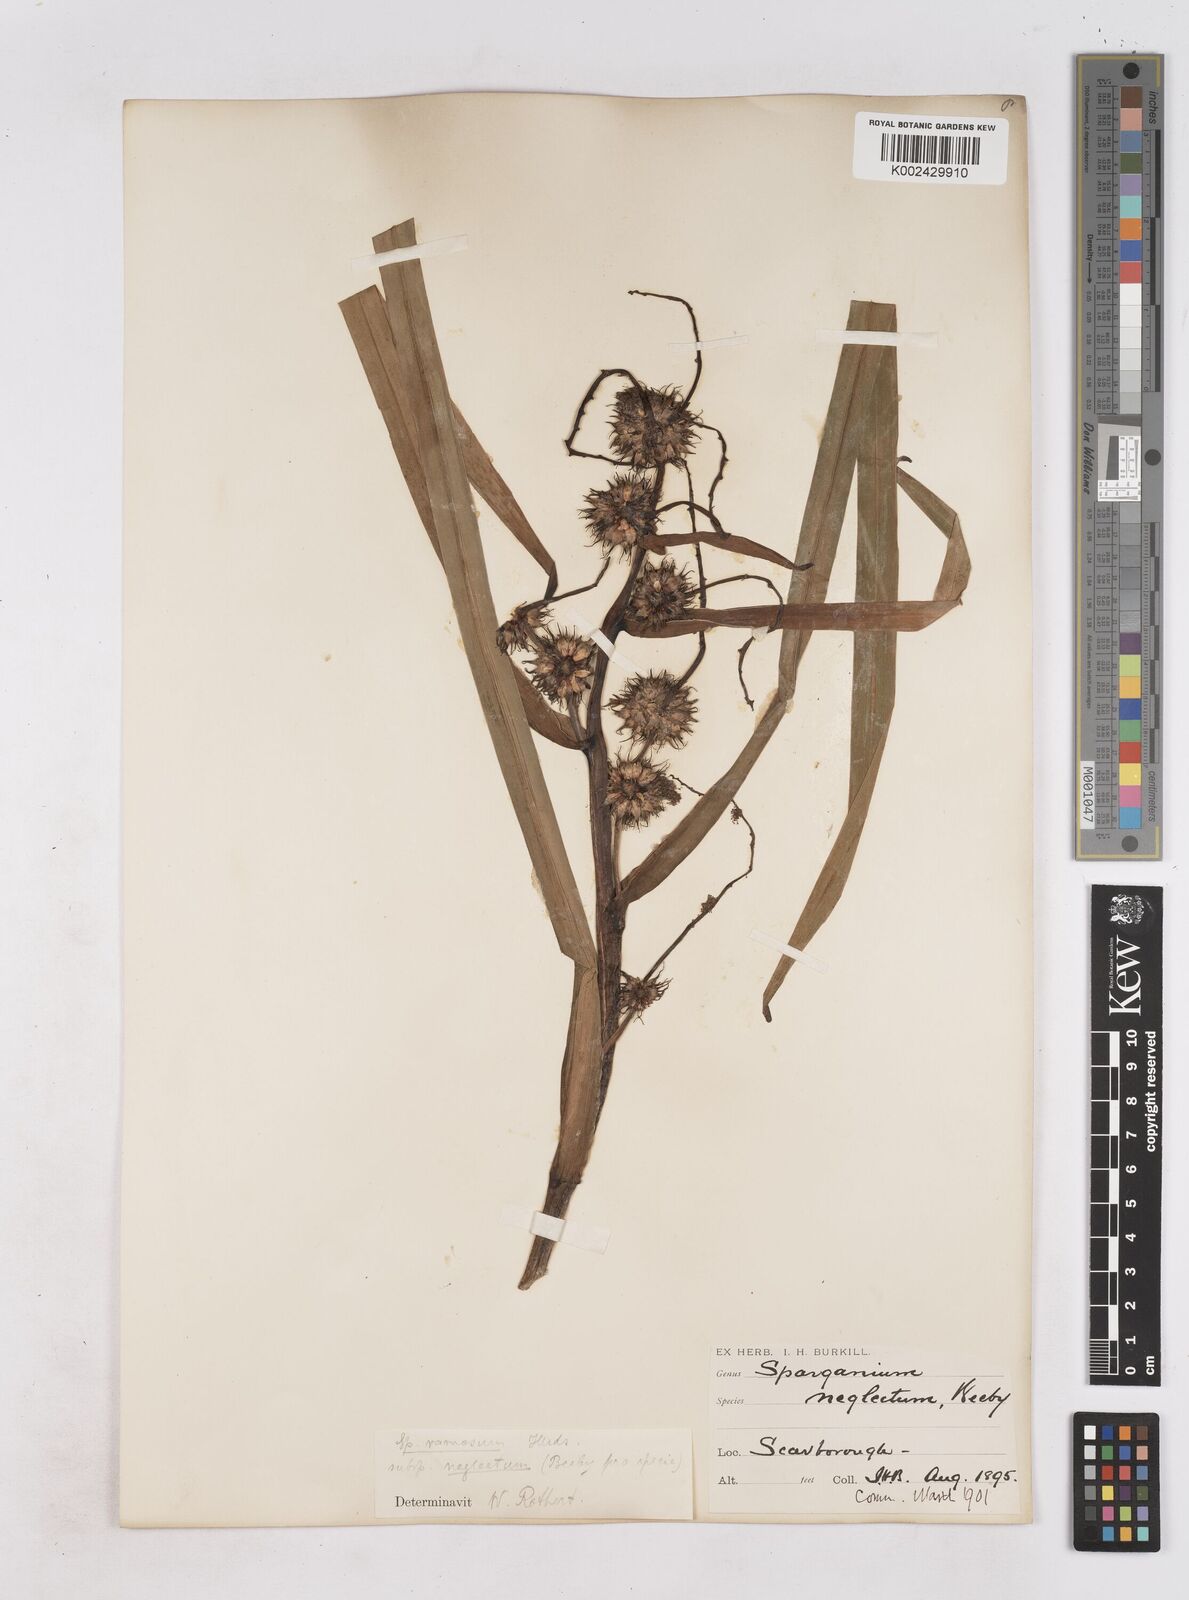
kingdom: Plantae
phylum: Tracheophyta
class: Liliopsida
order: Poales
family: Typhaceae
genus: Sparganium
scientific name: Sparganium erectum
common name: Branched bur-reed
